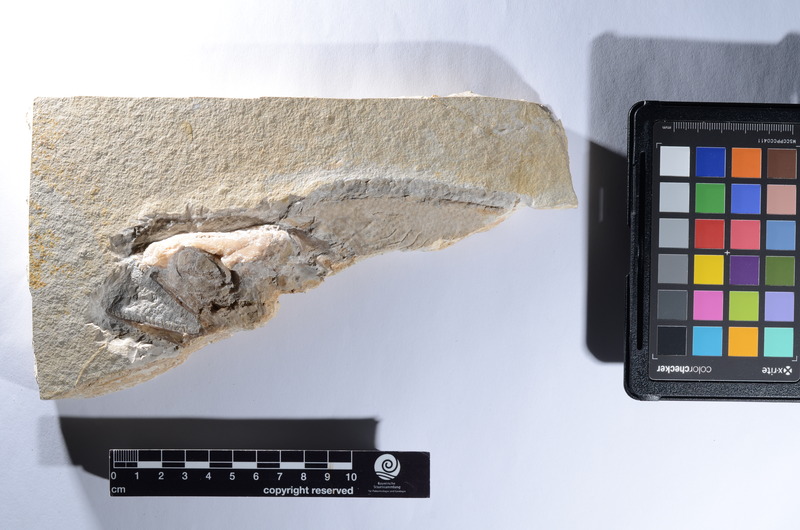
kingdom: Animalia
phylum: Chordata
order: Amiiformes
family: Caturidae
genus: Caturus
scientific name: Caturus
